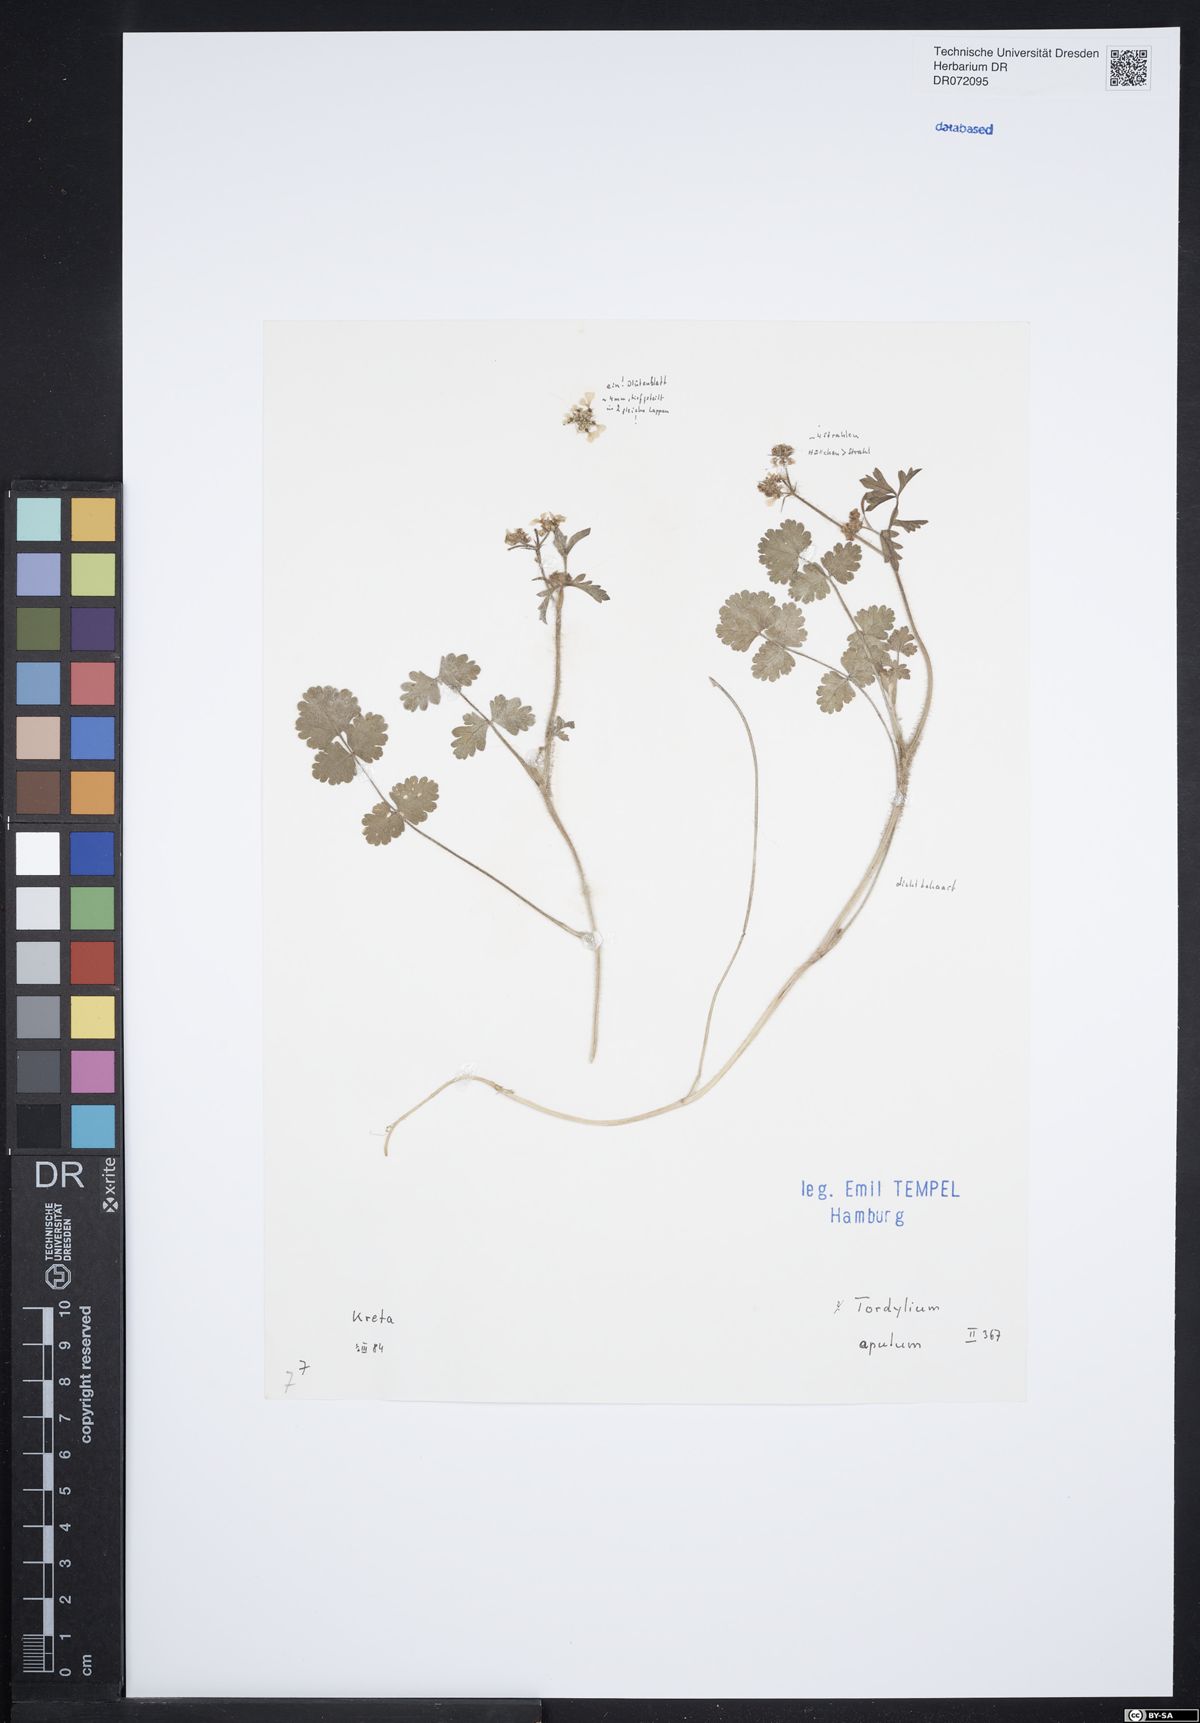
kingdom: Plantae
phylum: Tracheophyta
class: Magnoliopsida
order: Apiales
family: Apiaceae
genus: Tordylium
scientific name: Tordylium apulum
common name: Mediterranean hartwort
